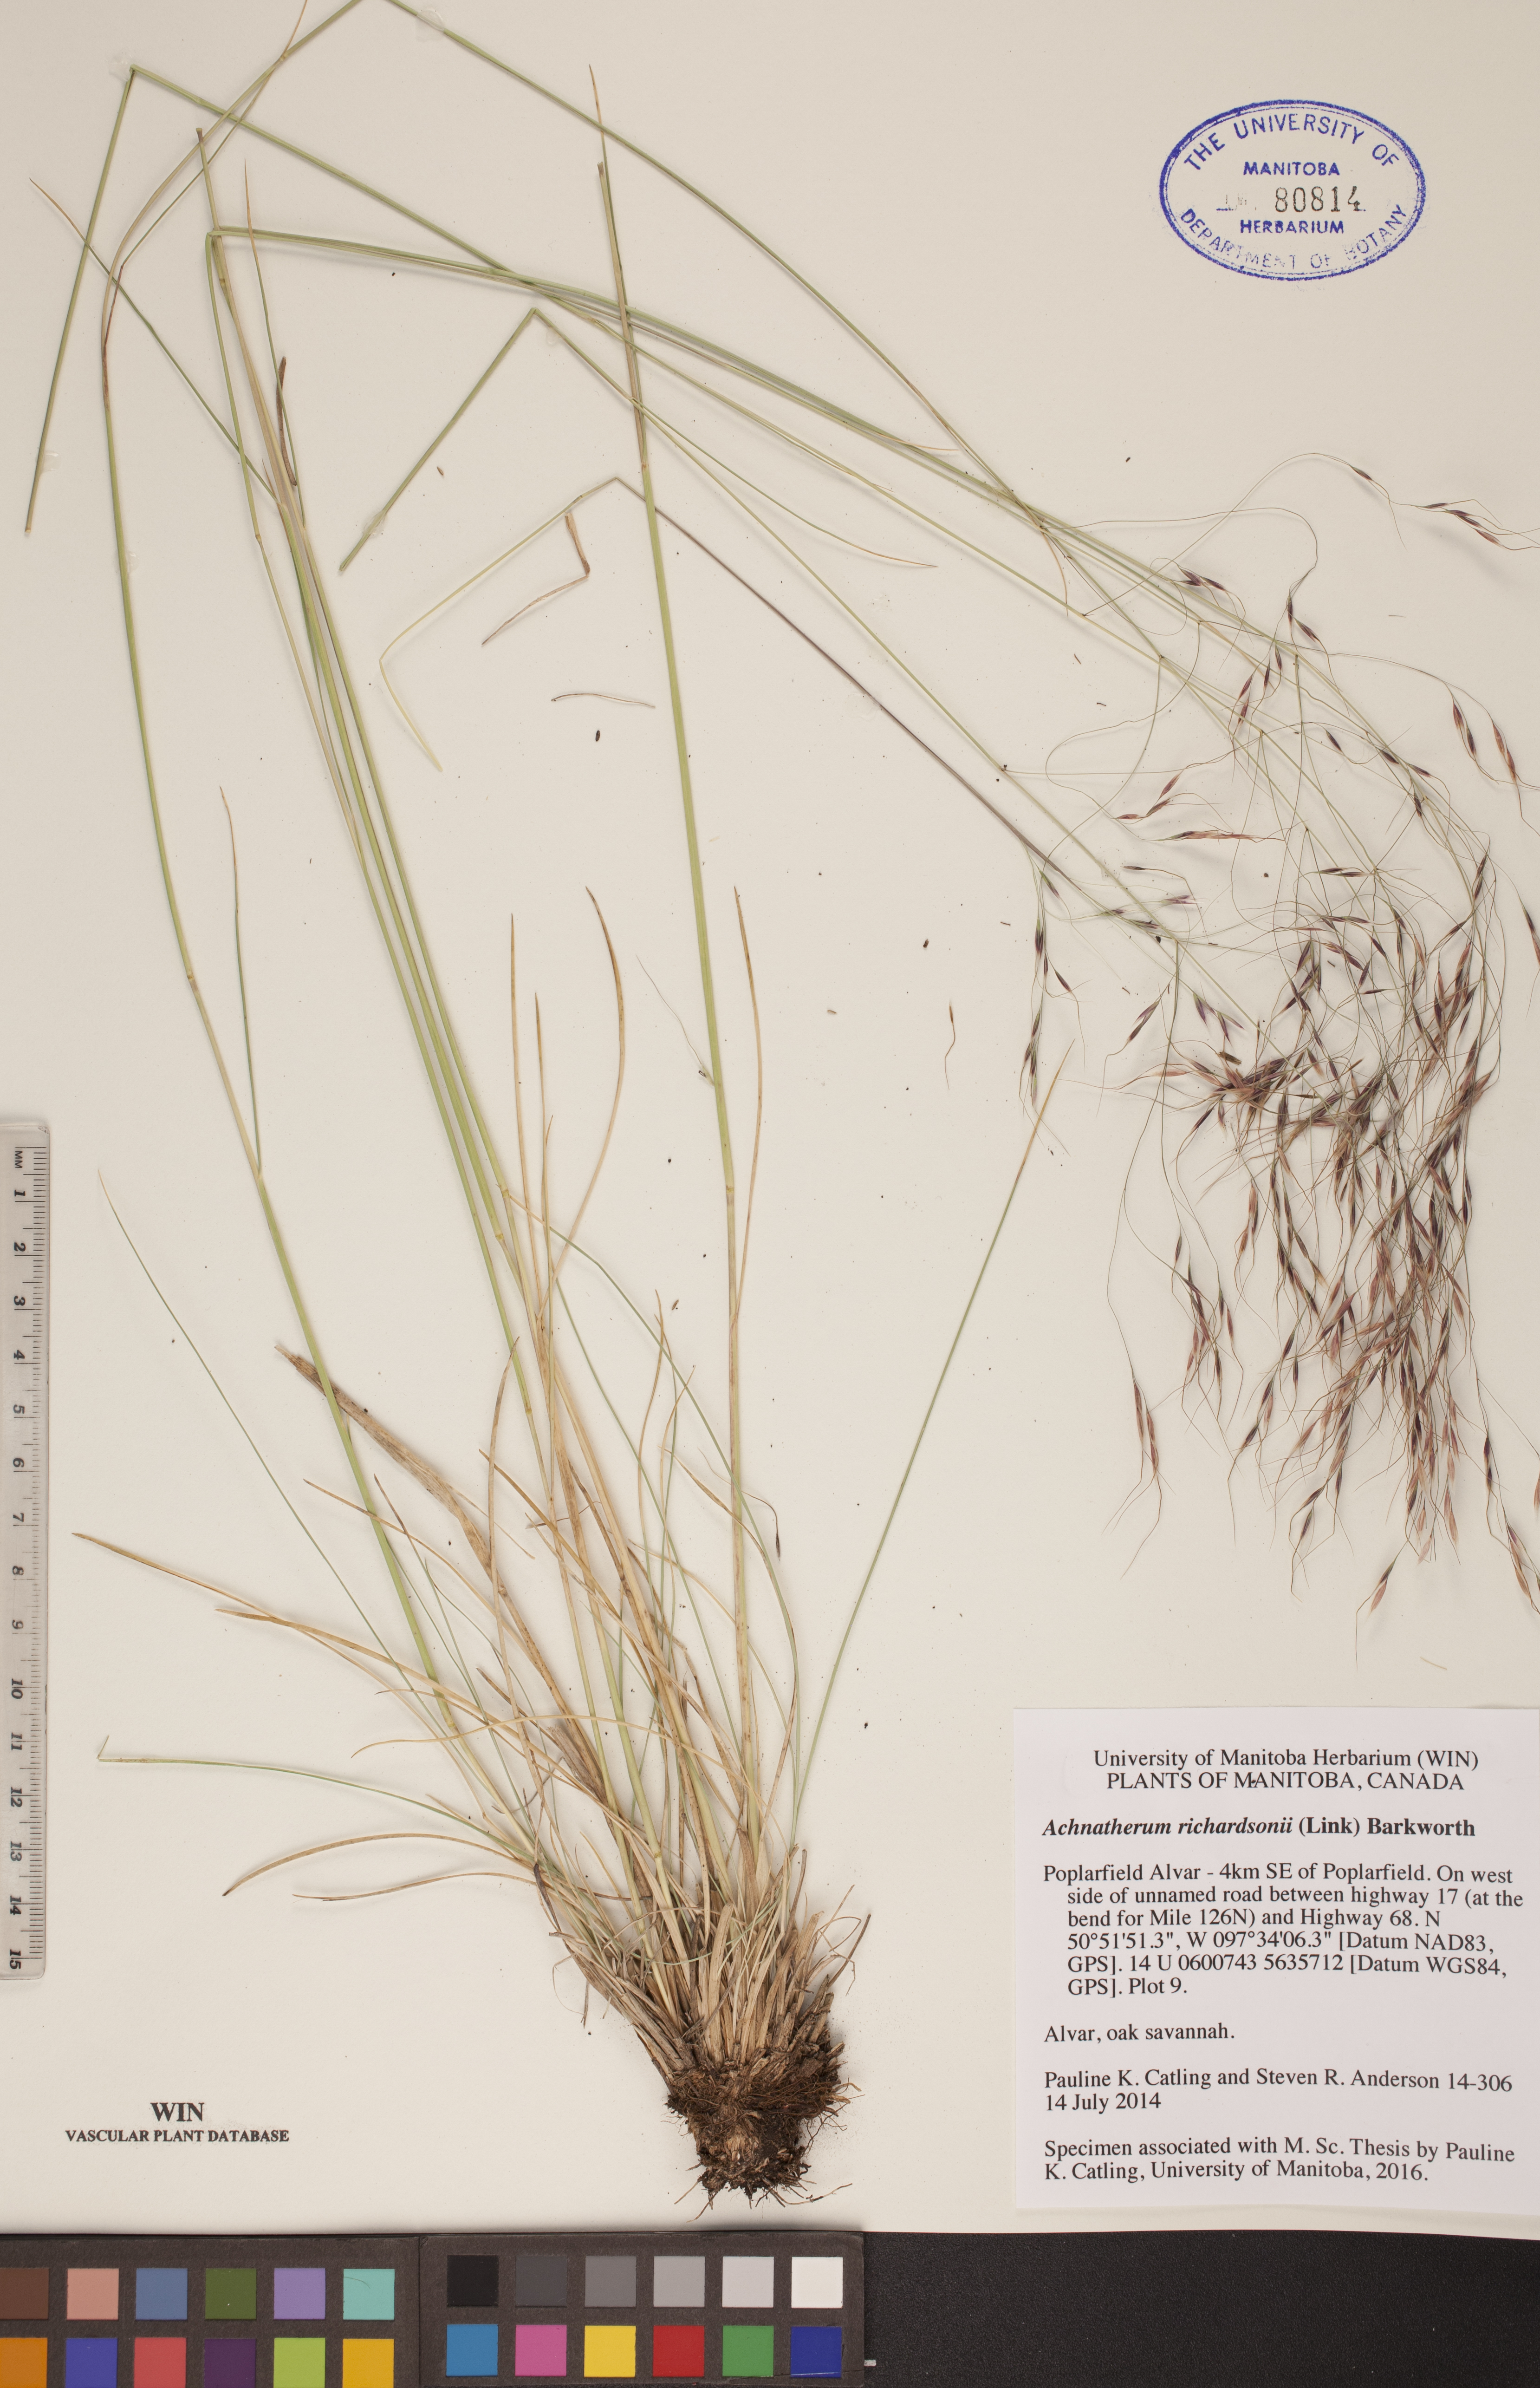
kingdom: Plantae
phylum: Tracheophyta
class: Liliopsida
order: Poales
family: Poaceae
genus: Eriocoma
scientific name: Eriocoma richardsonii
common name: Richardson's needlegrass
